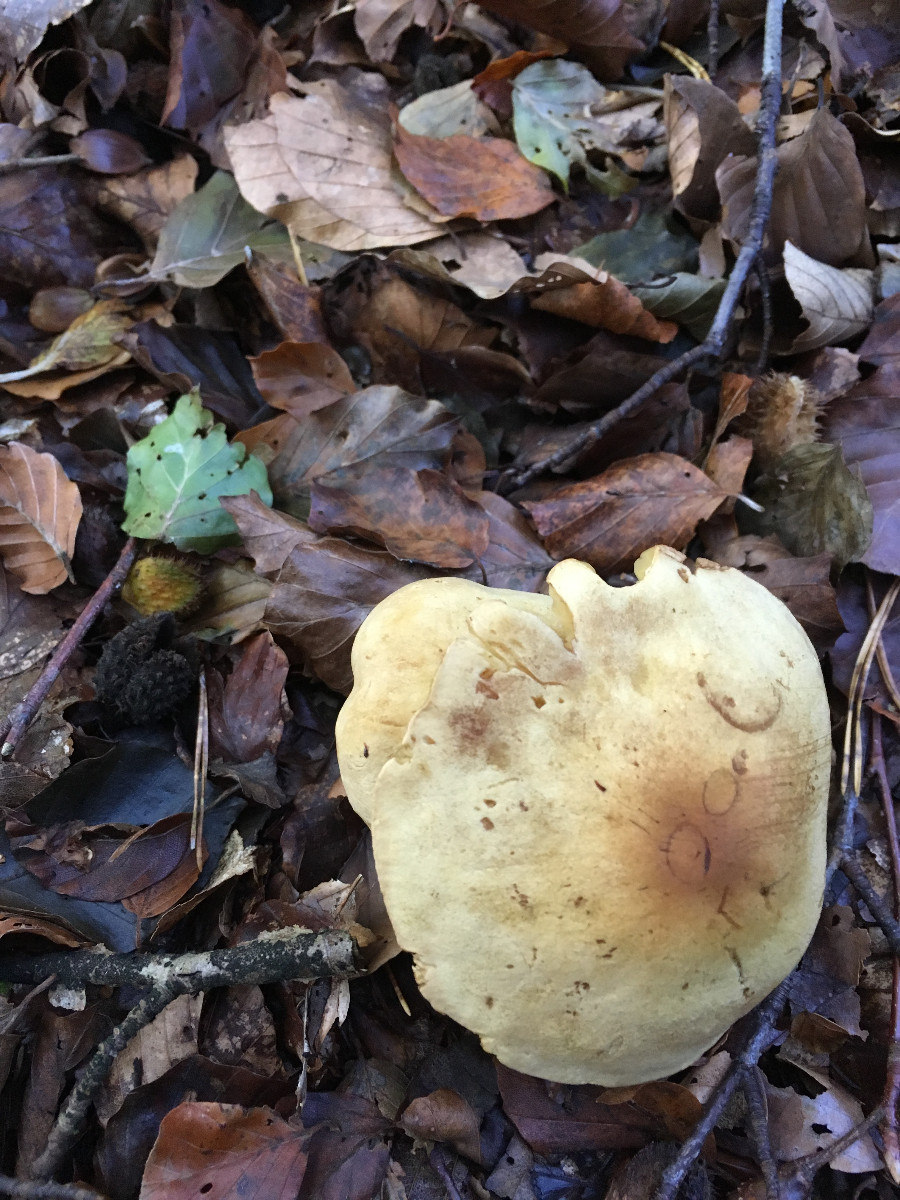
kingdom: Fungi
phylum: Basidiomycota
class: Agaricomycetes
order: Agaricales
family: Tricholomataceae
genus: Tricholoma
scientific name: Tricholoma sulphureum
